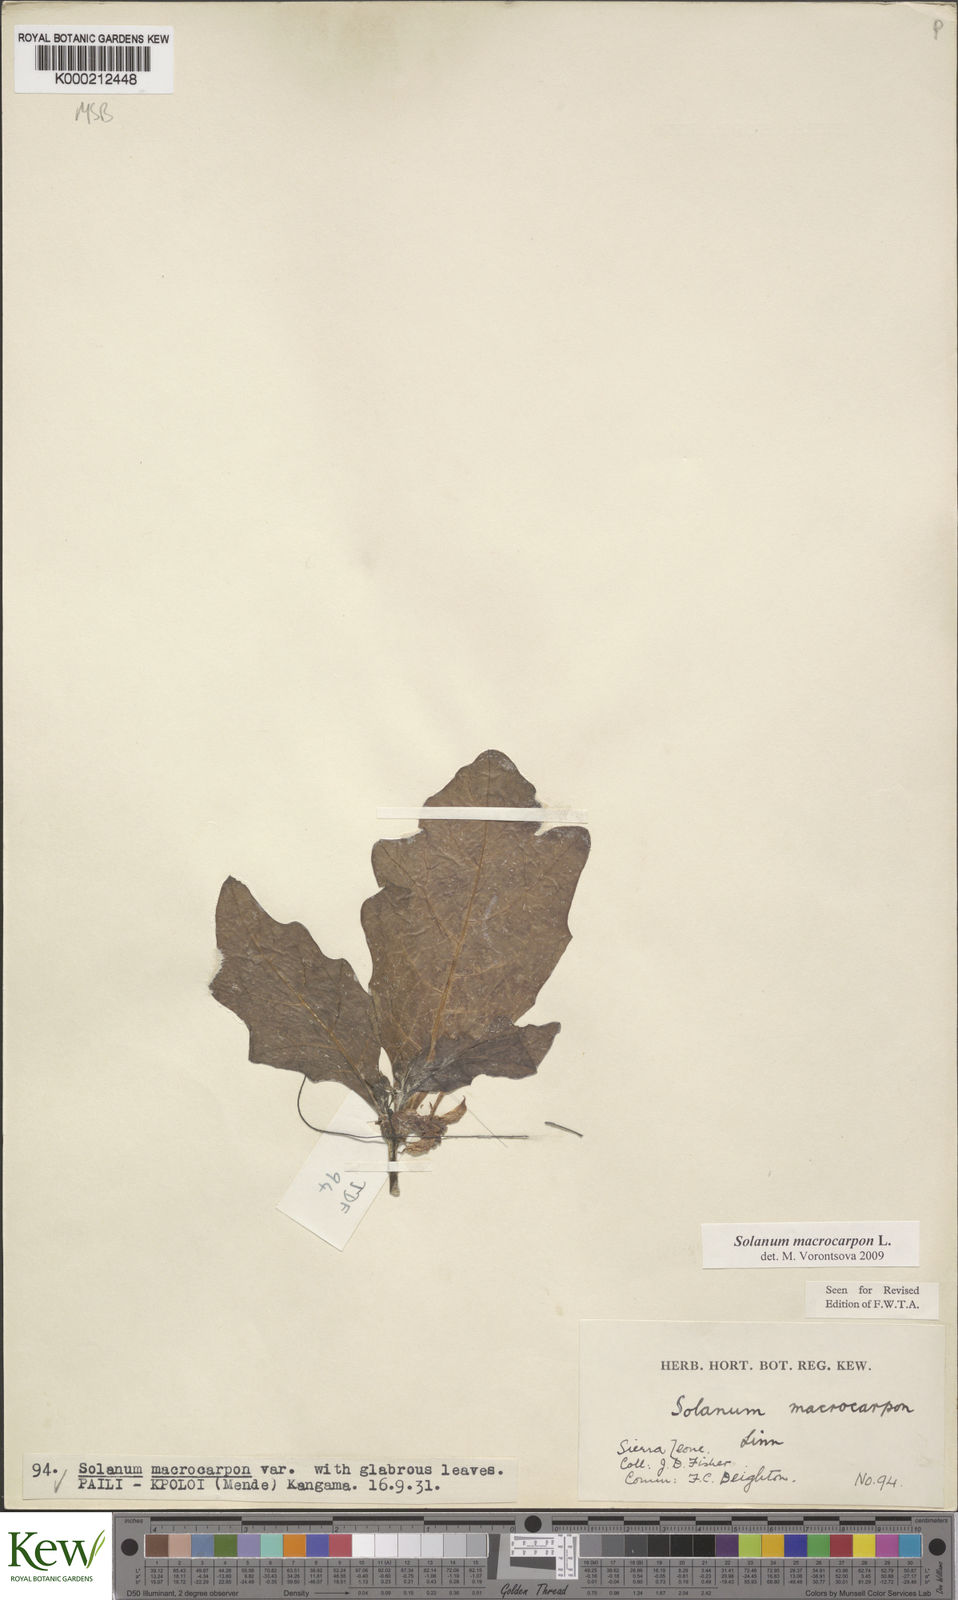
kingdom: Plantae
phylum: Tracheophyta
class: Magnoliopsida
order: Solanales
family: Solanaceae
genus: Solanum
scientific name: Solanum macrocarpon
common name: African eggplant
